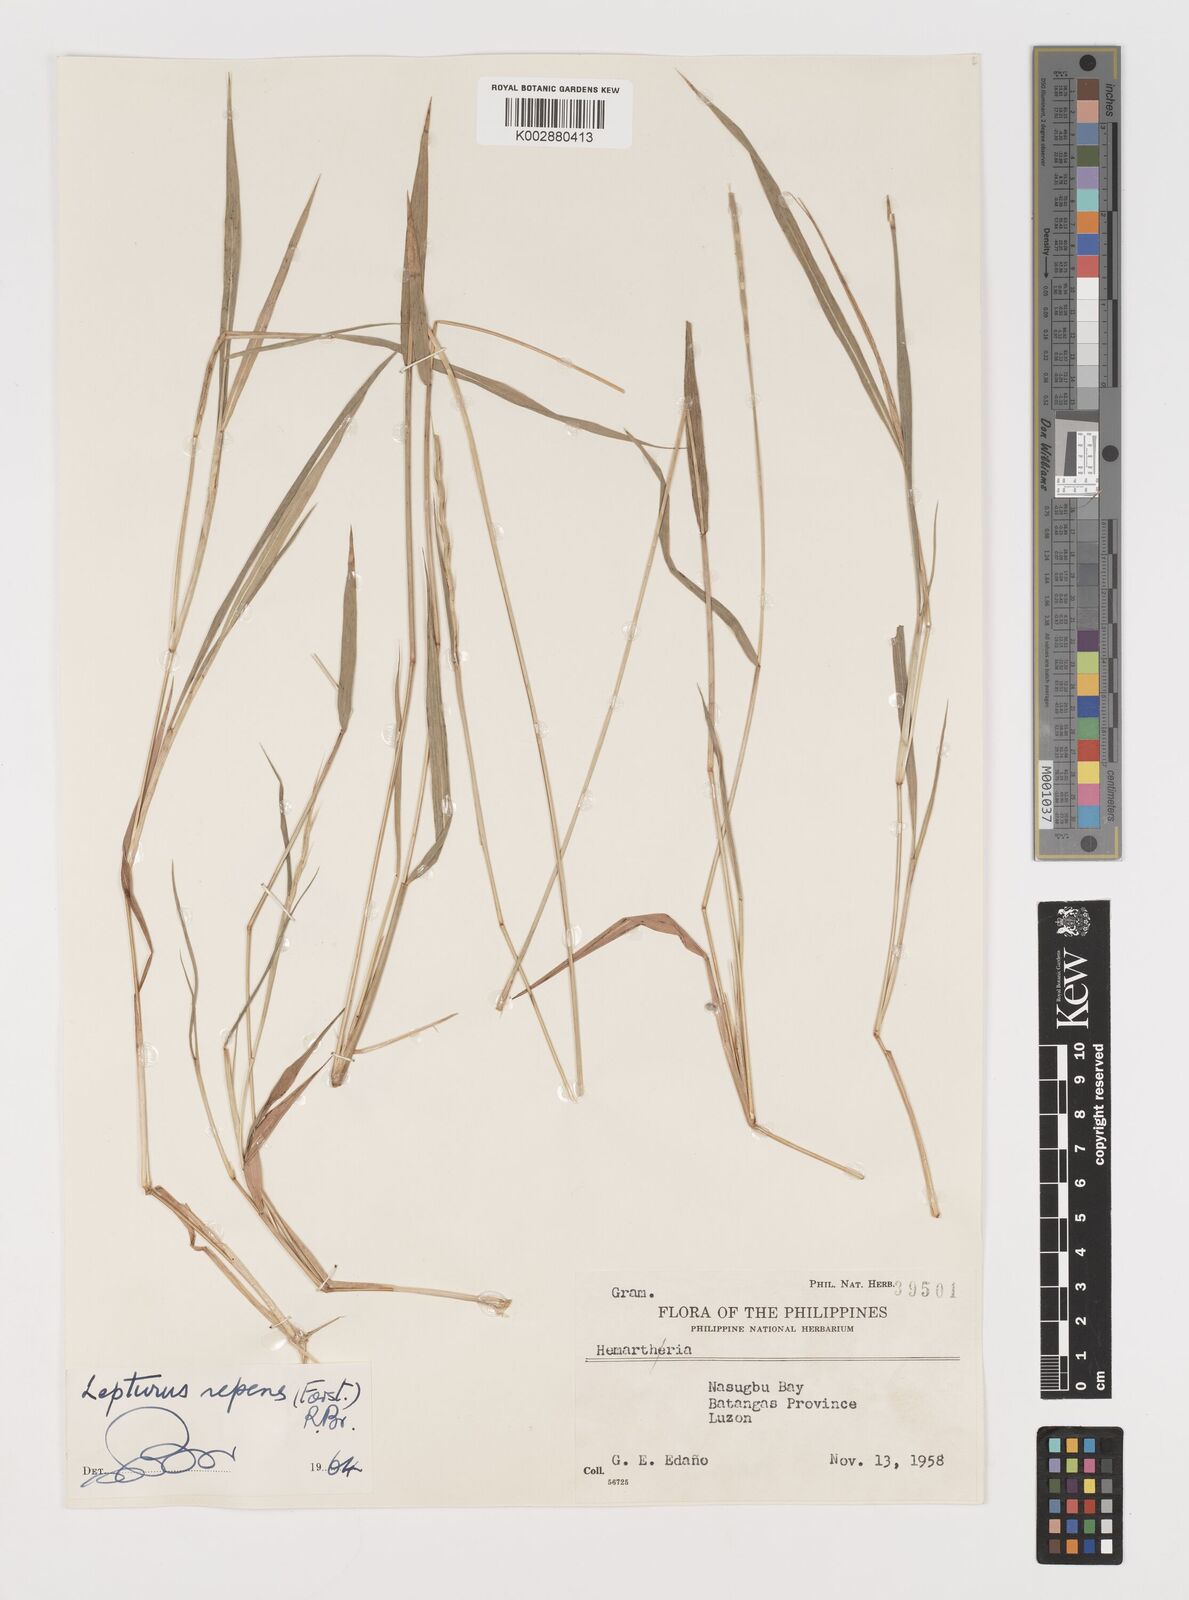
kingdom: Plantae
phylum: Tracheophyta
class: Liliopsida
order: Poales
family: Poaceae
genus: Lepturus
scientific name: Lepturus repens
